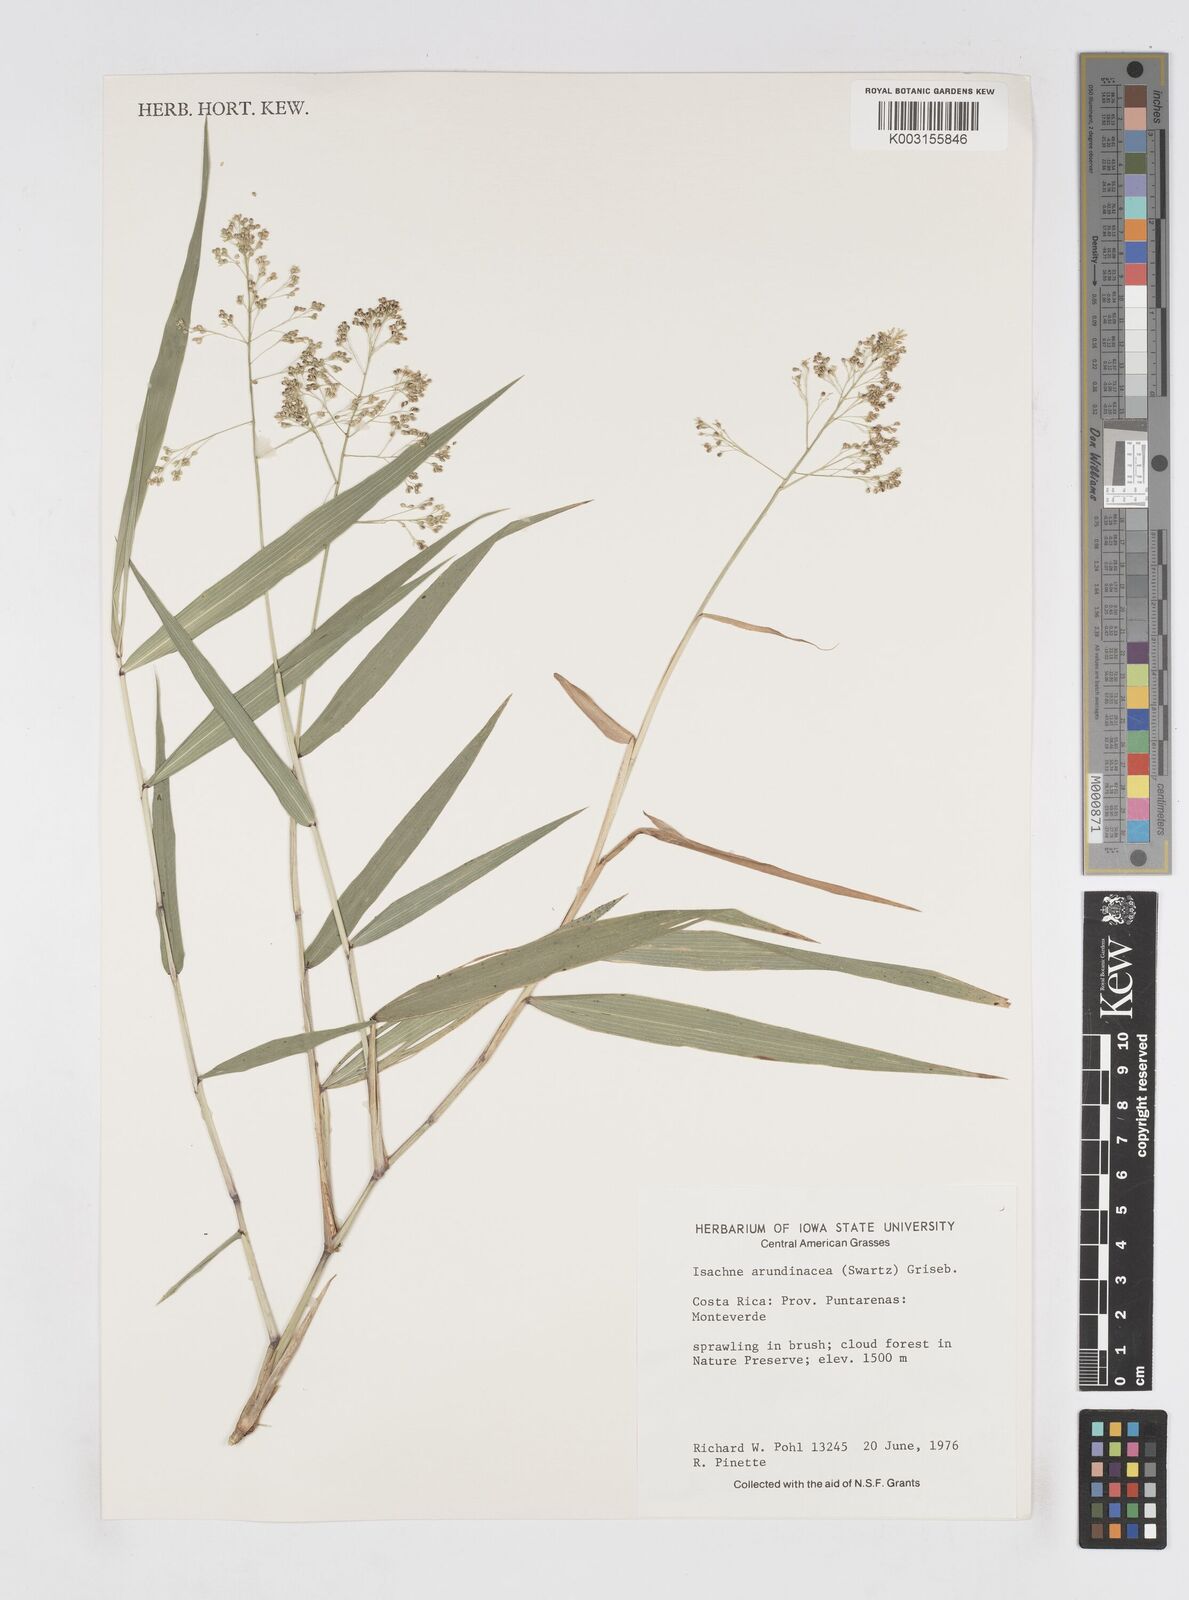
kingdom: Plantae
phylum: Tracheophyta
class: Liliopsida
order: Poales
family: Poaceae
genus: Isachne
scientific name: Isachne arundinacea
